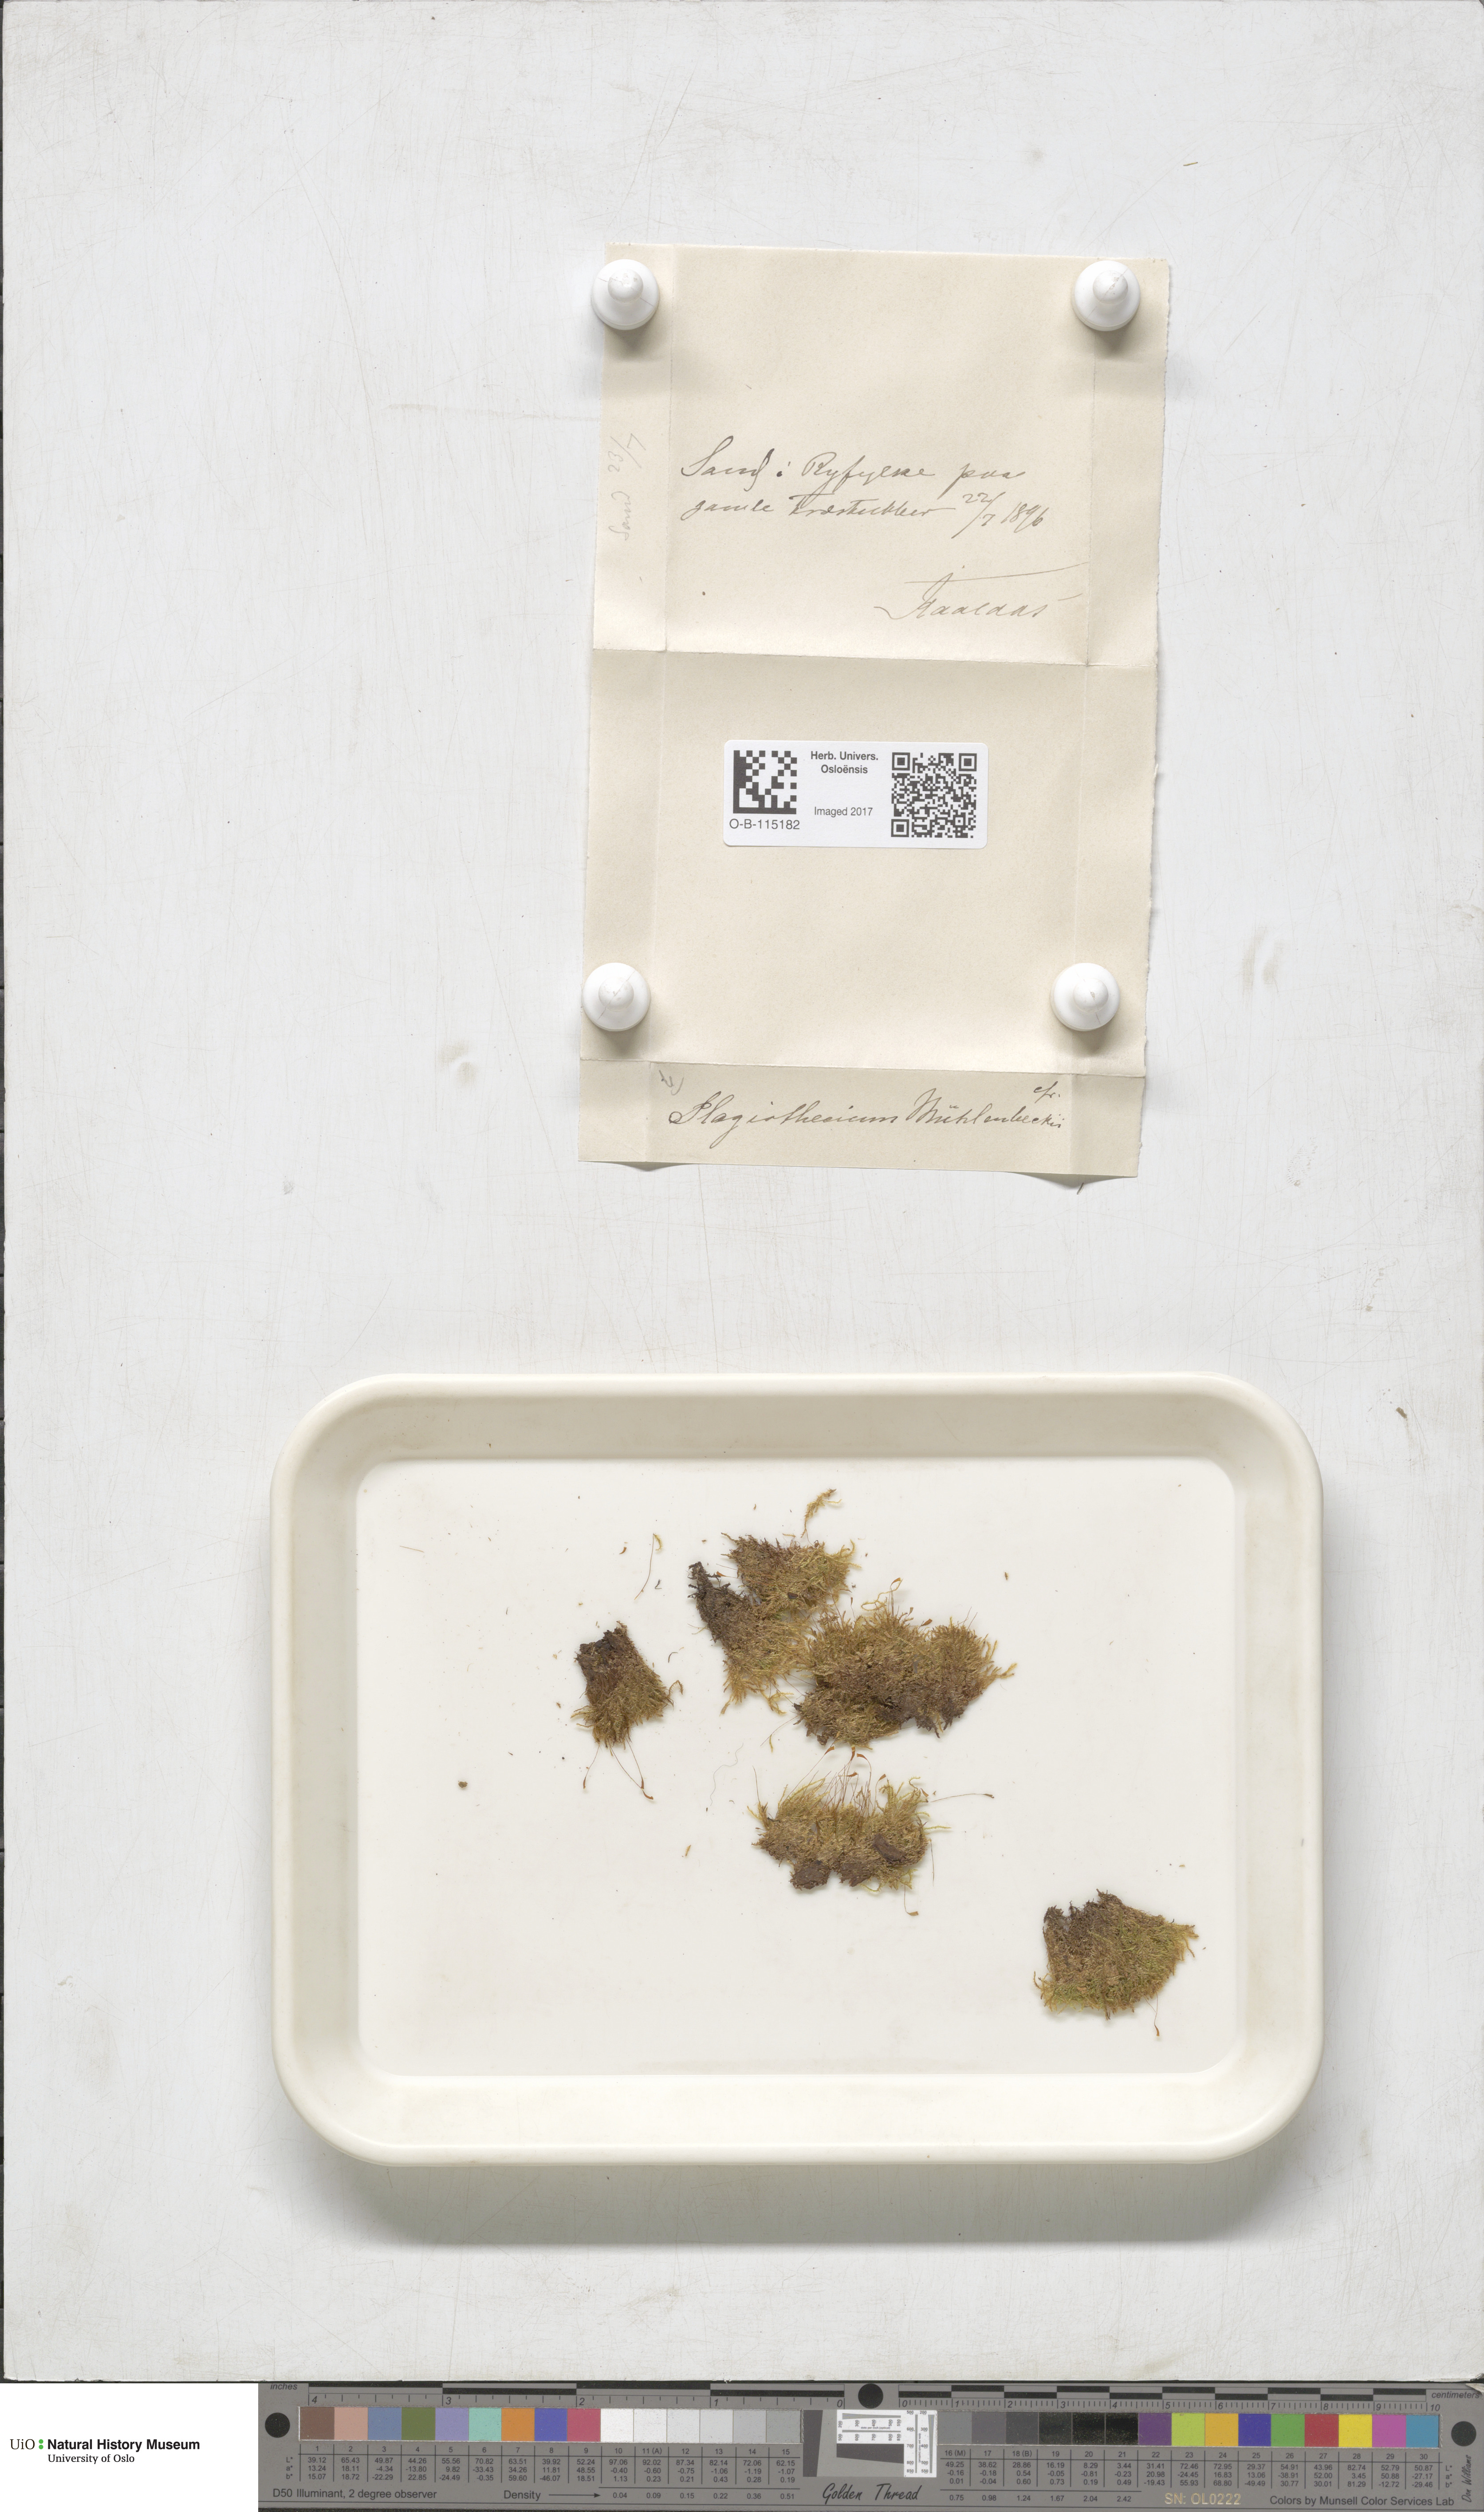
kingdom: Plantae
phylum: Bryophyta
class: Bryopsida
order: Hypnales
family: Plagiotheciaceae
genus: Herzogiella
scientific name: Herzogiella striatella
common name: Muhlenbeck's feather-moss
